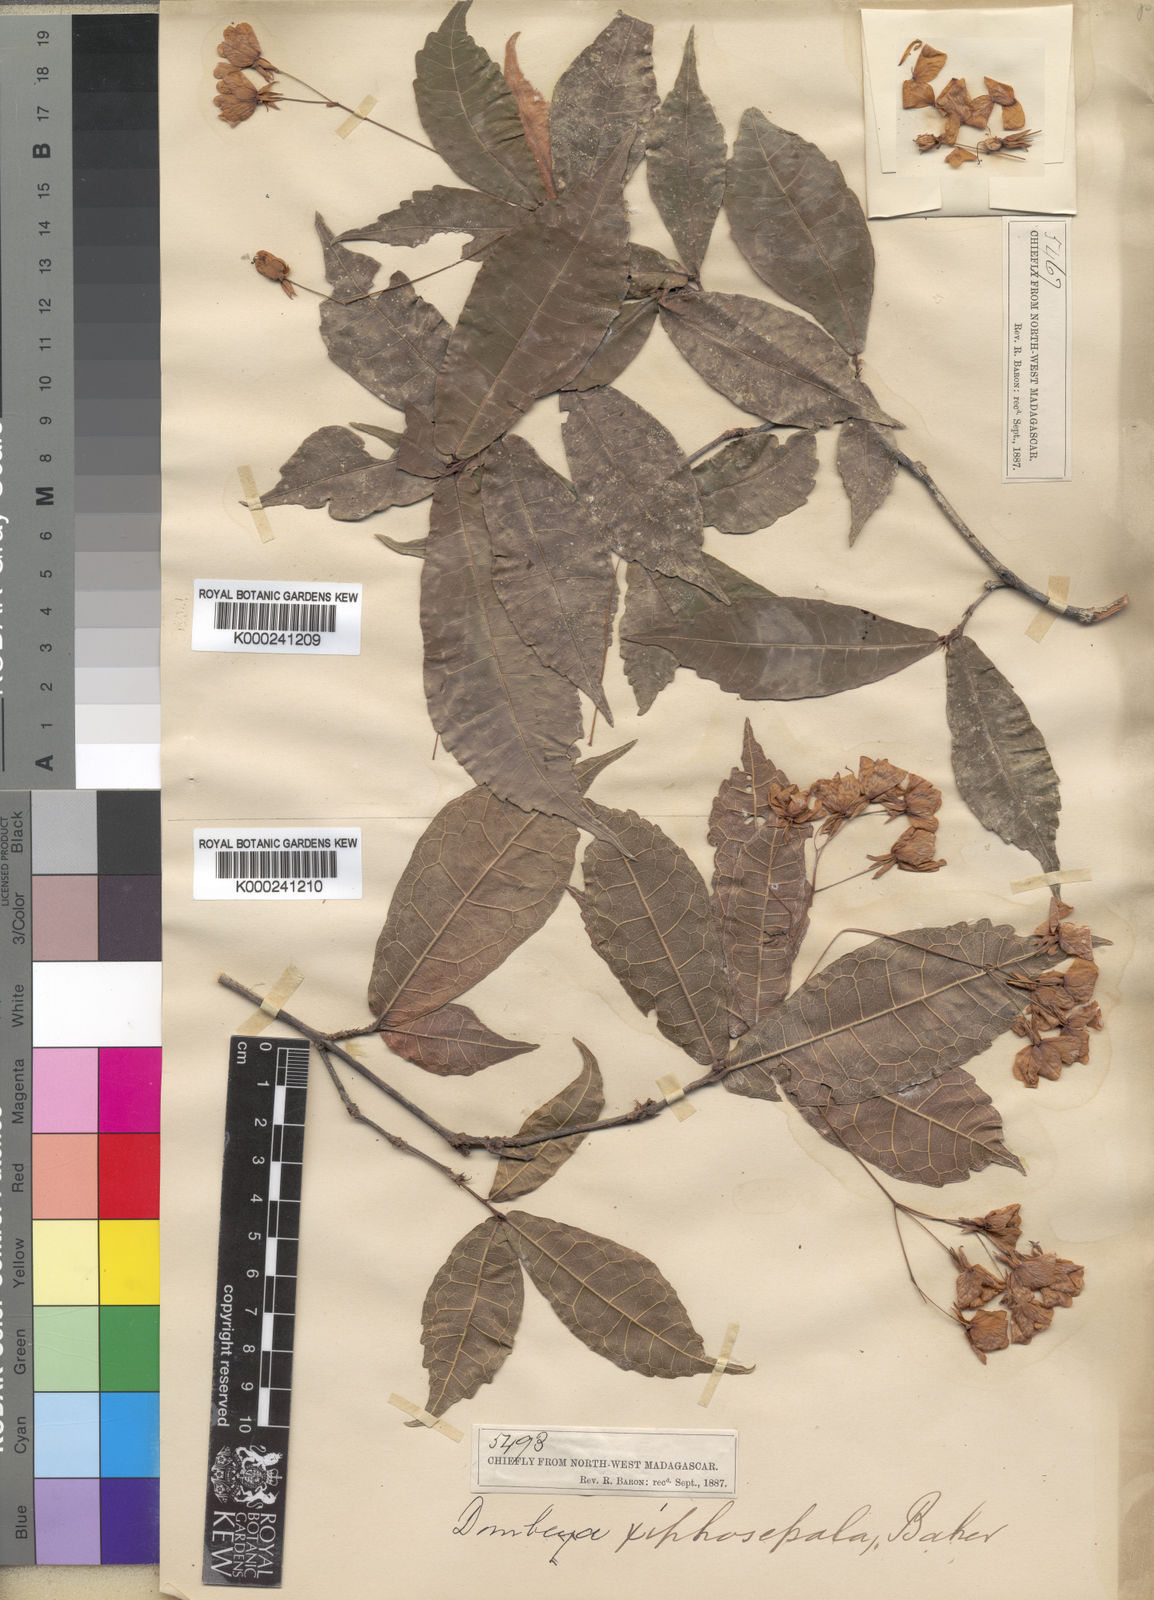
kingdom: Plantae
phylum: Tracheophyta
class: Magnoliopsida
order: Malvales
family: Malvaceae
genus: Dombeya
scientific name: Dombeya xiphosepala
